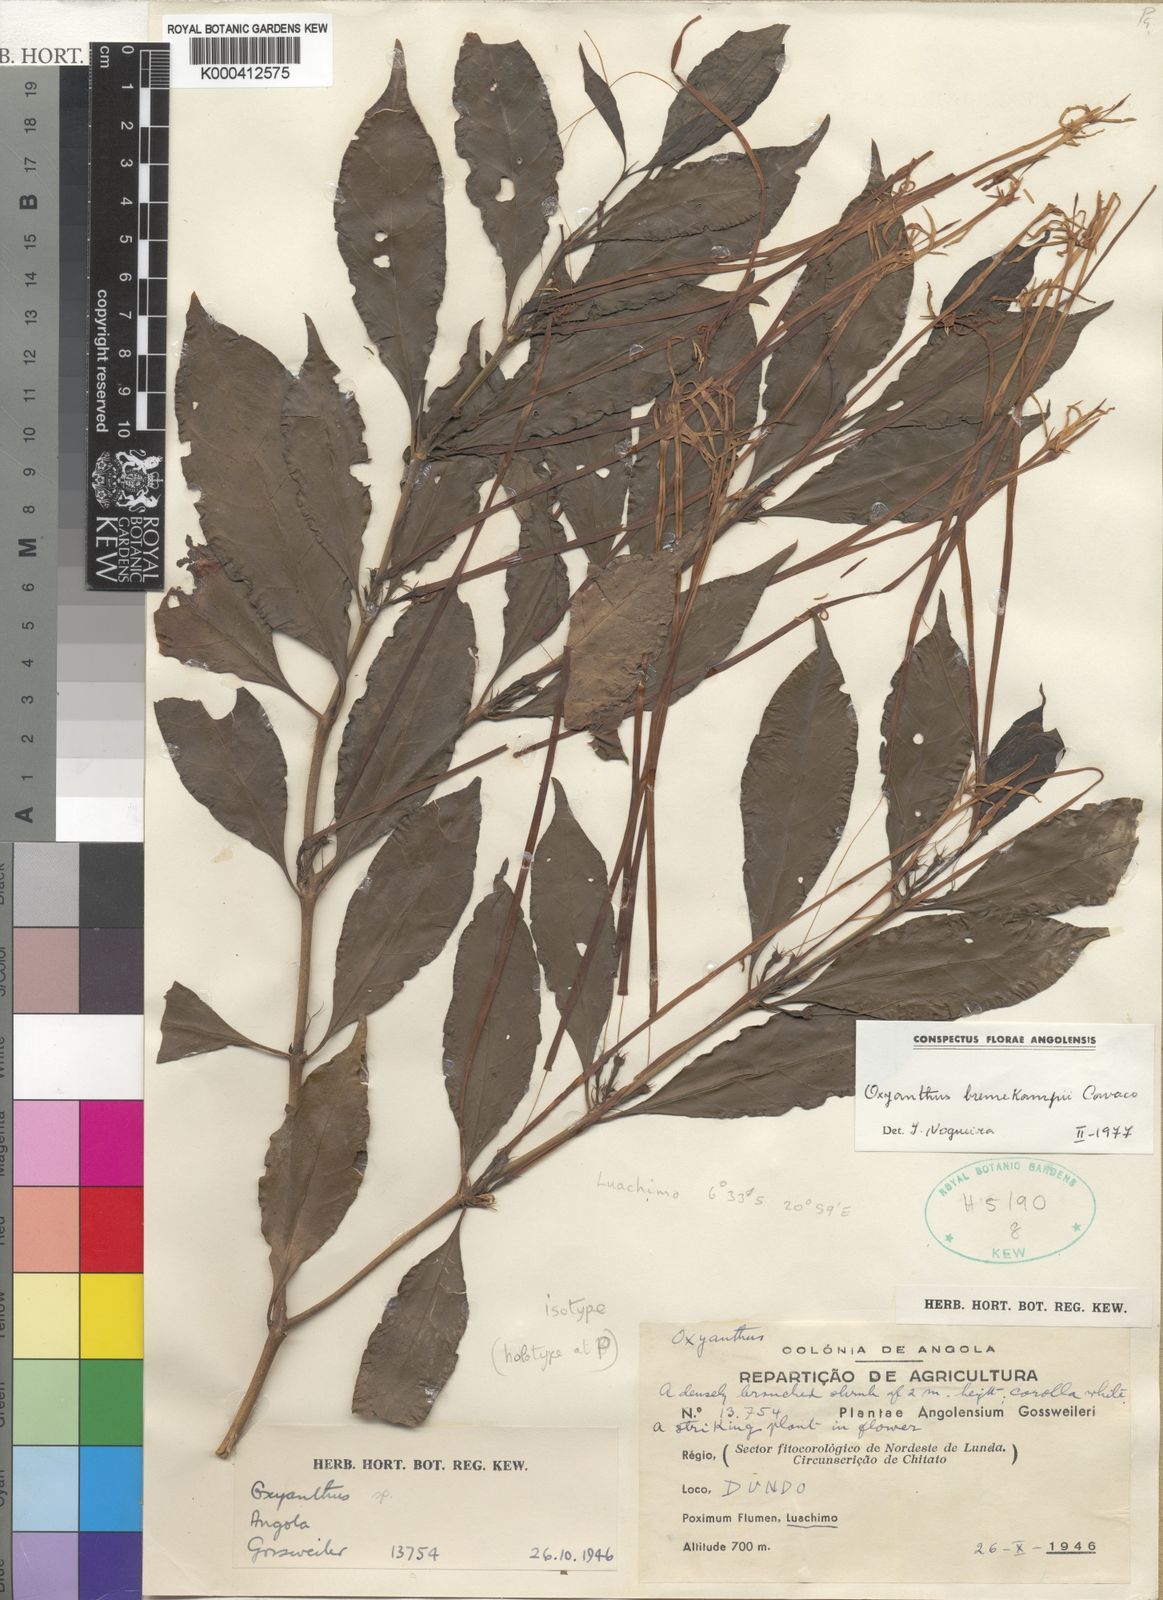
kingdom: Plantae
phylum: Tracheophyta
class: Magnoliopsida
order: Gentianales
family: Rubiaceae
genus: Oxyanthus
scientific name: Oxyanthus bremekampii
